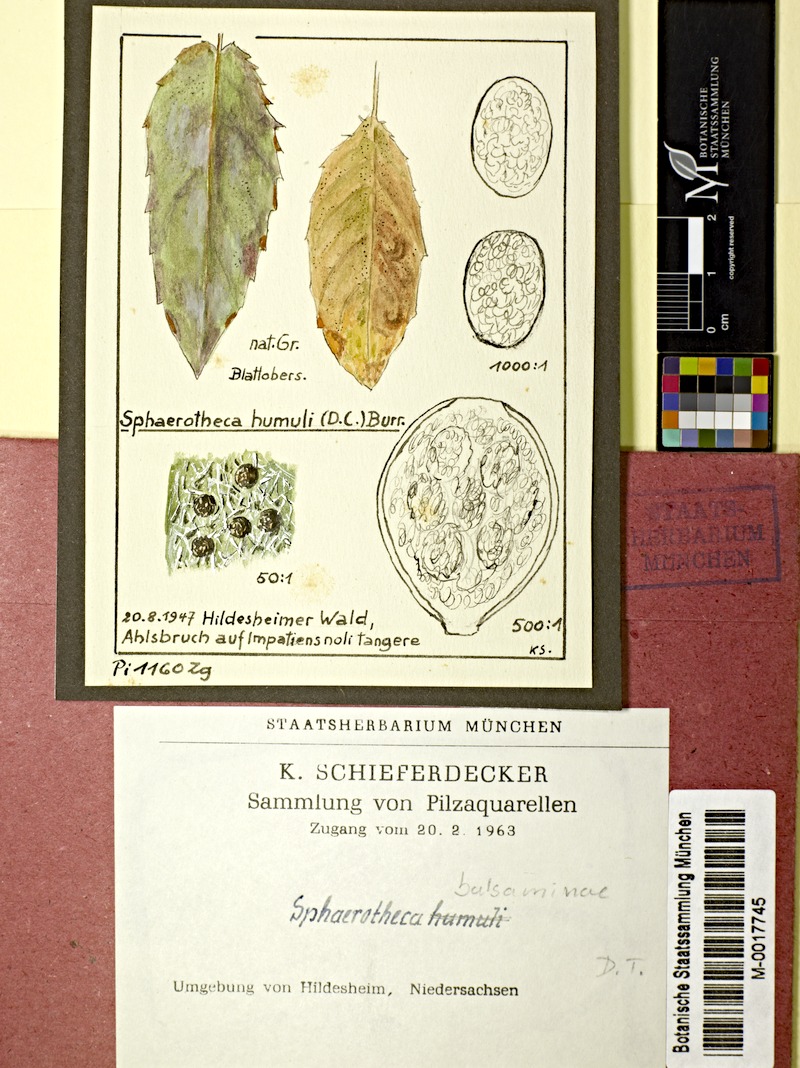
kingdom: Plantae
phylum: Tracheophyta
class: Magnoliopsida
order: Ericales
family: Balsaminaceae
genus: Impatiens
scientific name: Impatiens noli-tangere
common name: Touch-me-not balsam
